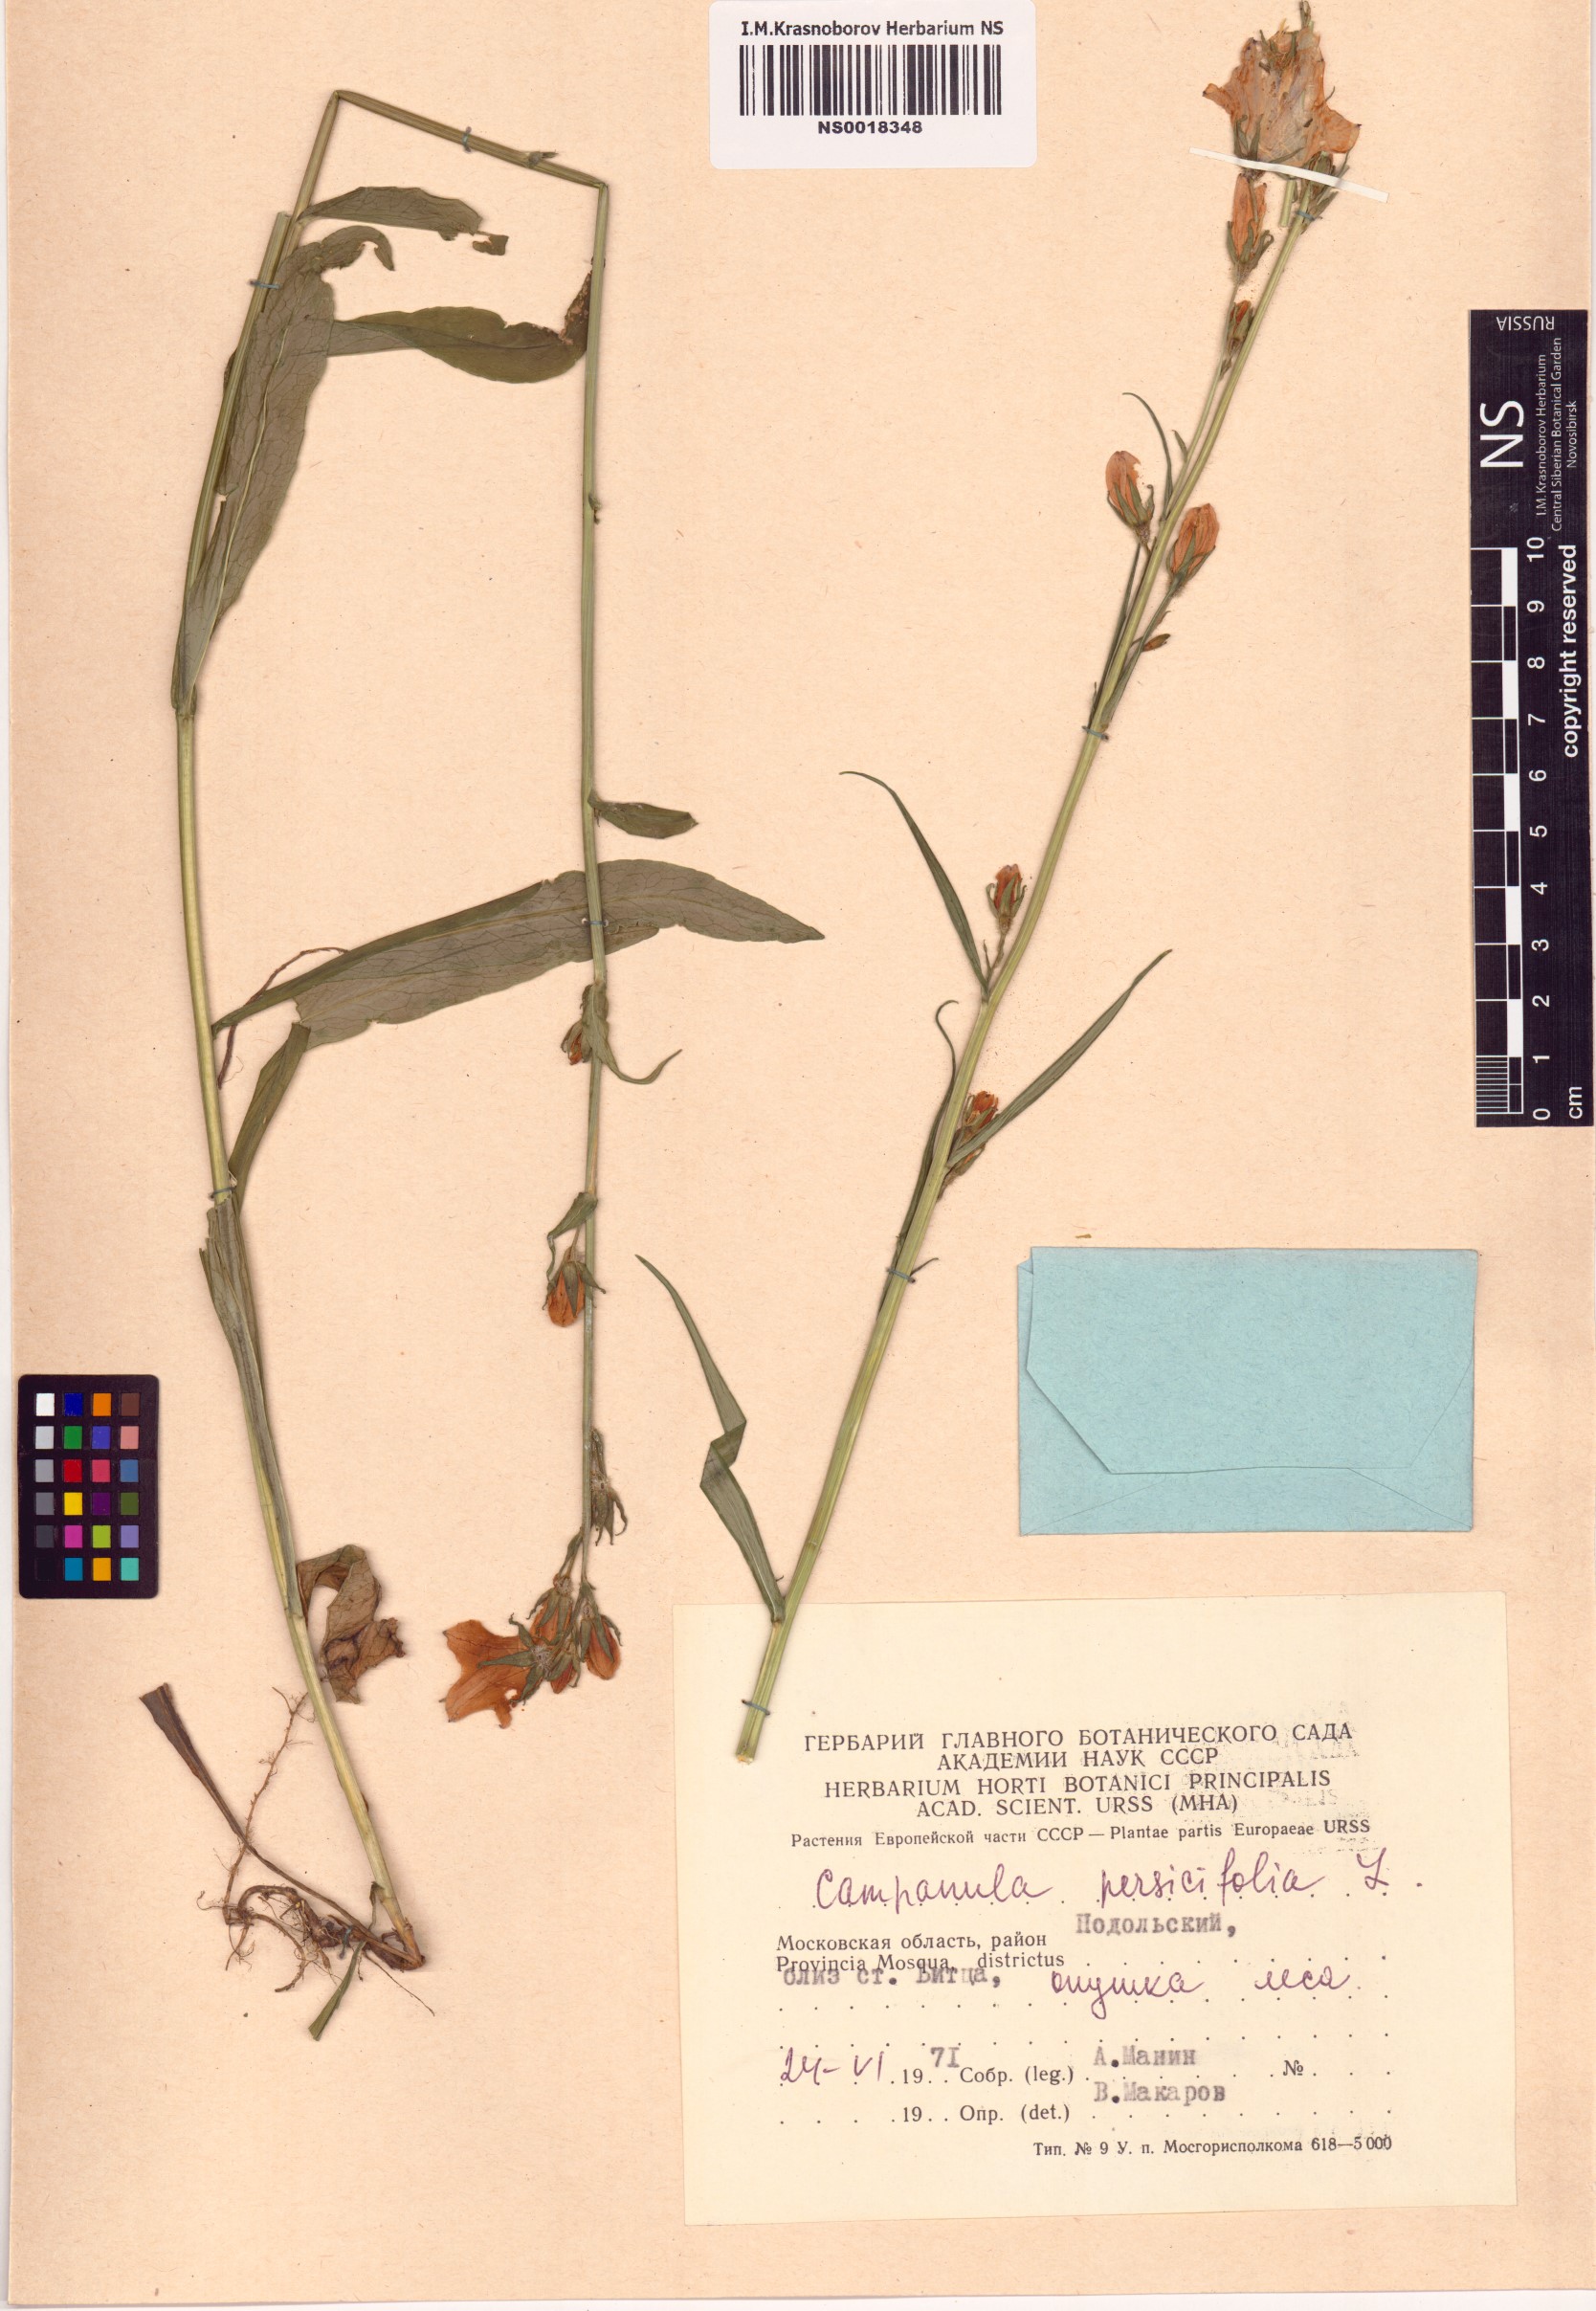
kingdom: Plantae
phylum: Tracheophyta
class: Magnoliopsida
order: Asterales
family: Campanulaceae
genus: Campanula
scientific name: Campanula persicifolia
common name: Peach-leaved bellflower
